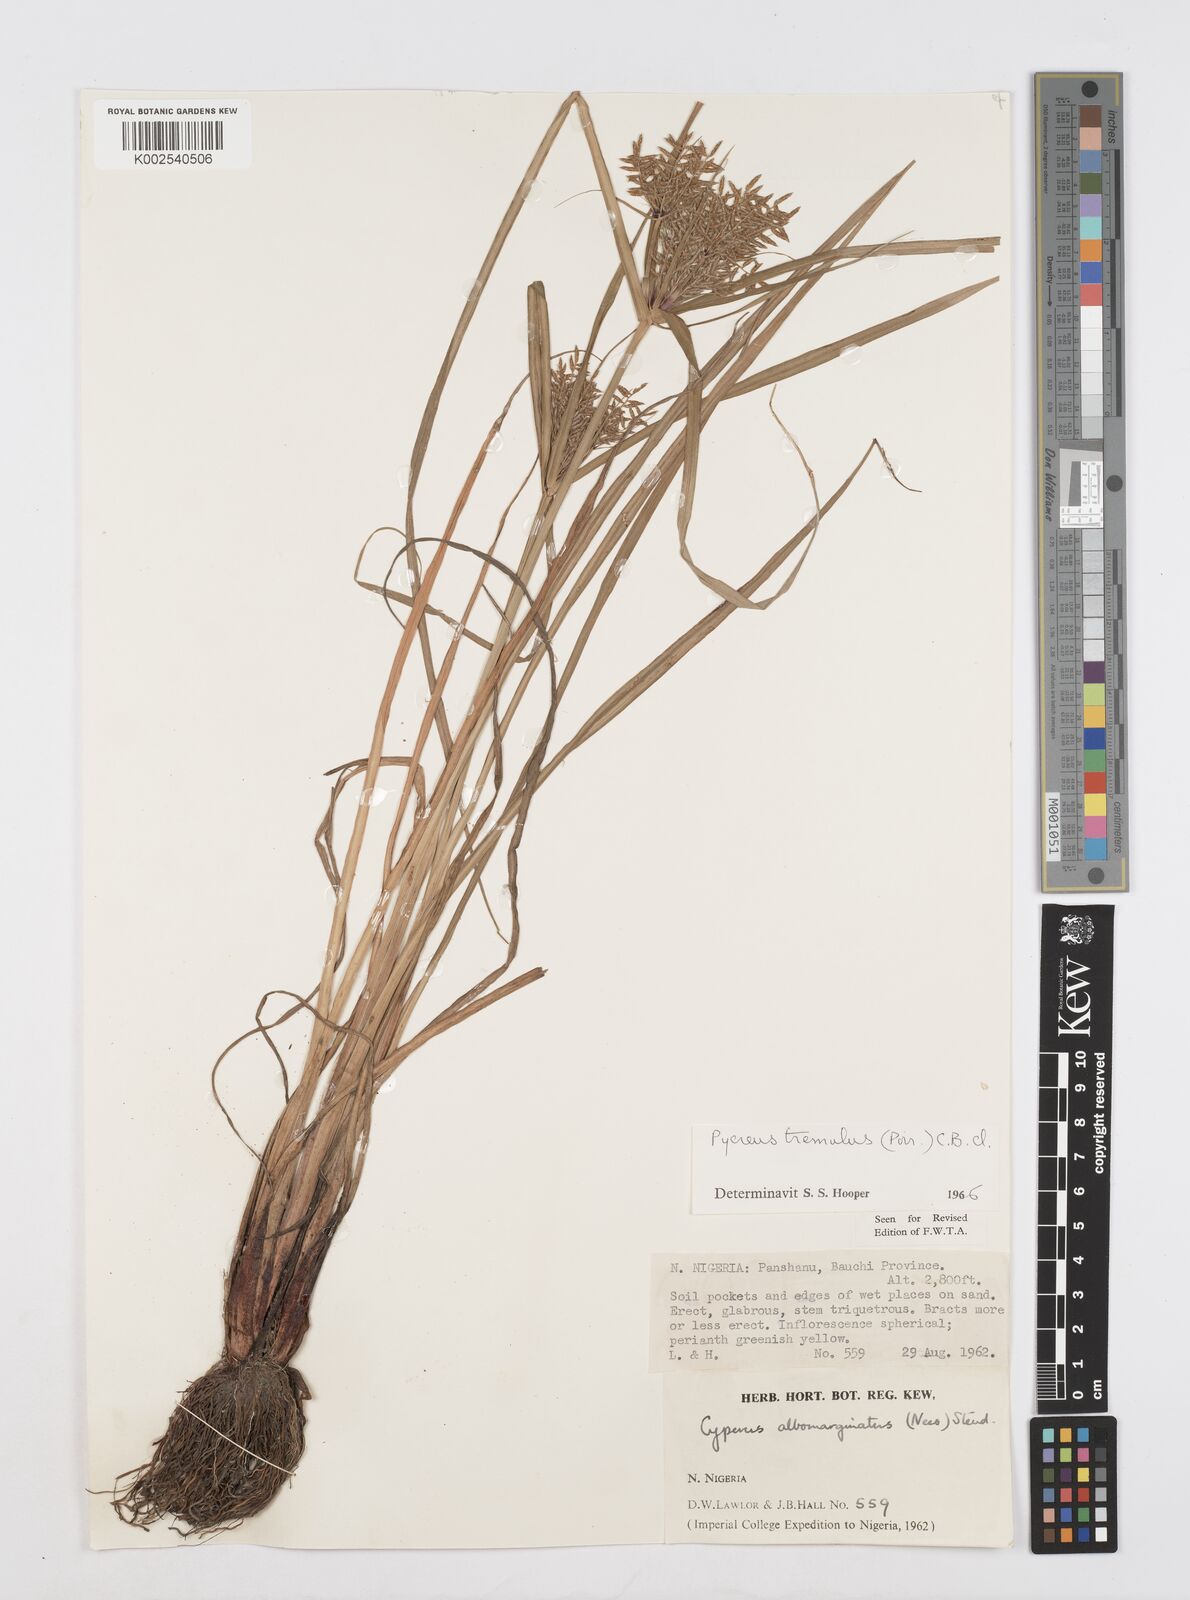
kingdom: Plantae
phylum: Tracheophyta
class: Liliopsida
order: Poales
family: Cyperaceae
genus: Cyperus
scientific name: Cyperus macrostachyos
